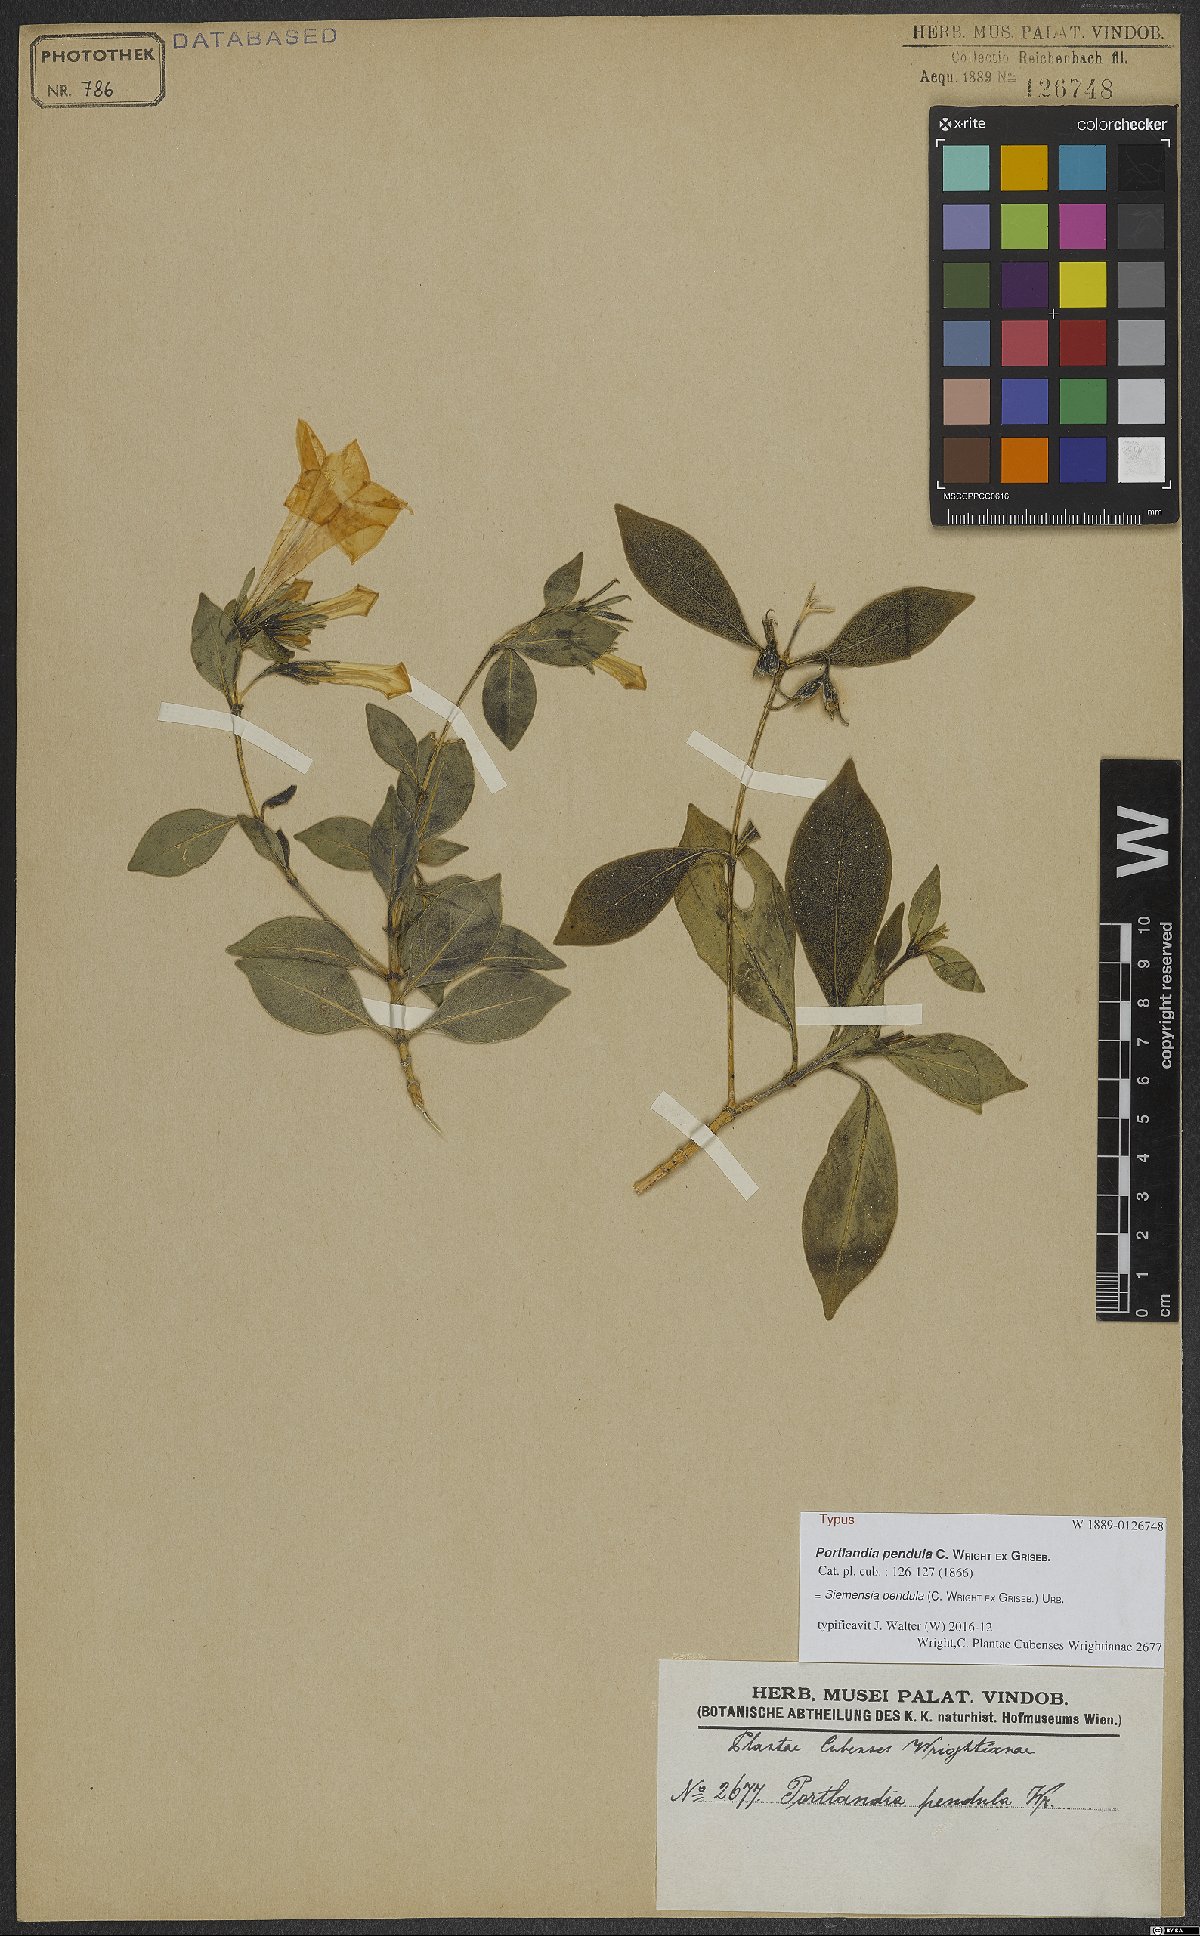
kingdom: Plantae
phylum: Tracheophyta
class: Magnoliopsida
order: Gentianales
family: Rubiaceae
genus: Siemensia
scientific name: Siemensia pendula
